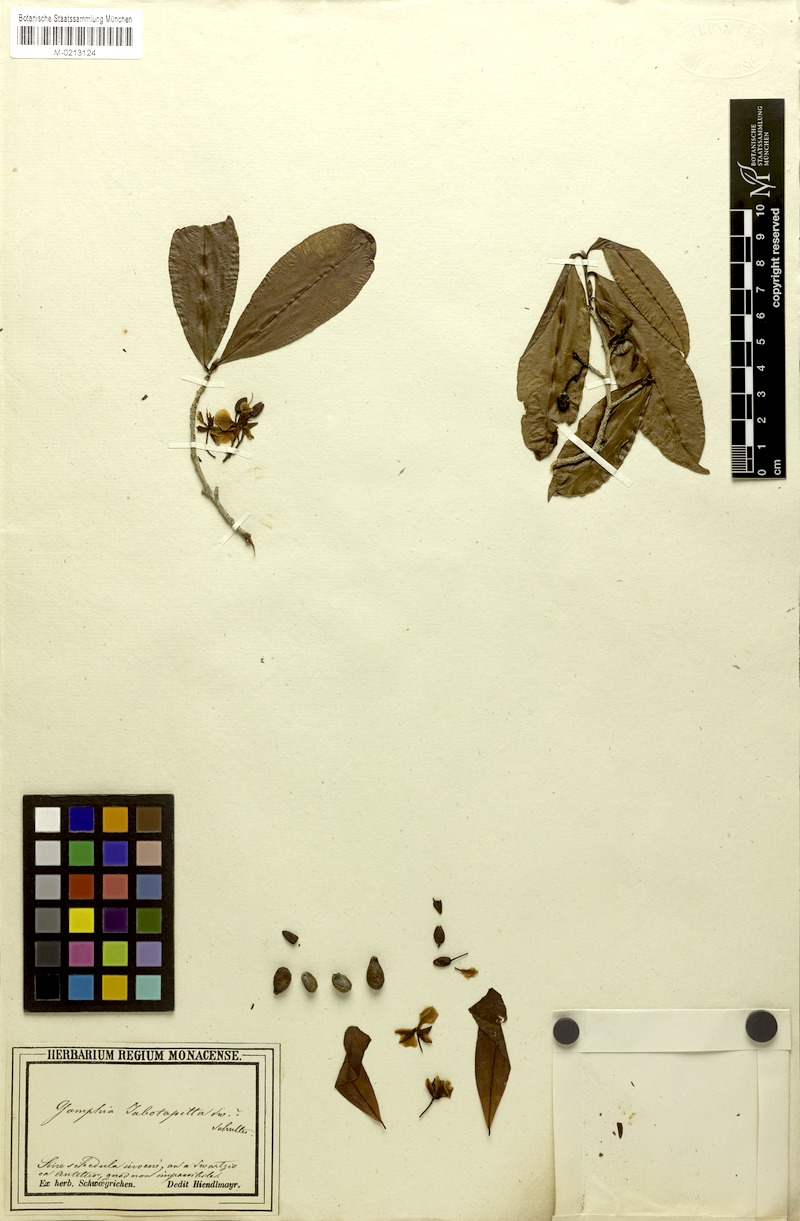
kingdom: Plantae
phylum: Tracheophyta
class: Magnoliopsida
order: Malpighiales
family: Ochnaceae
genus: Ochna
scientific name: Ochna jabotapita
